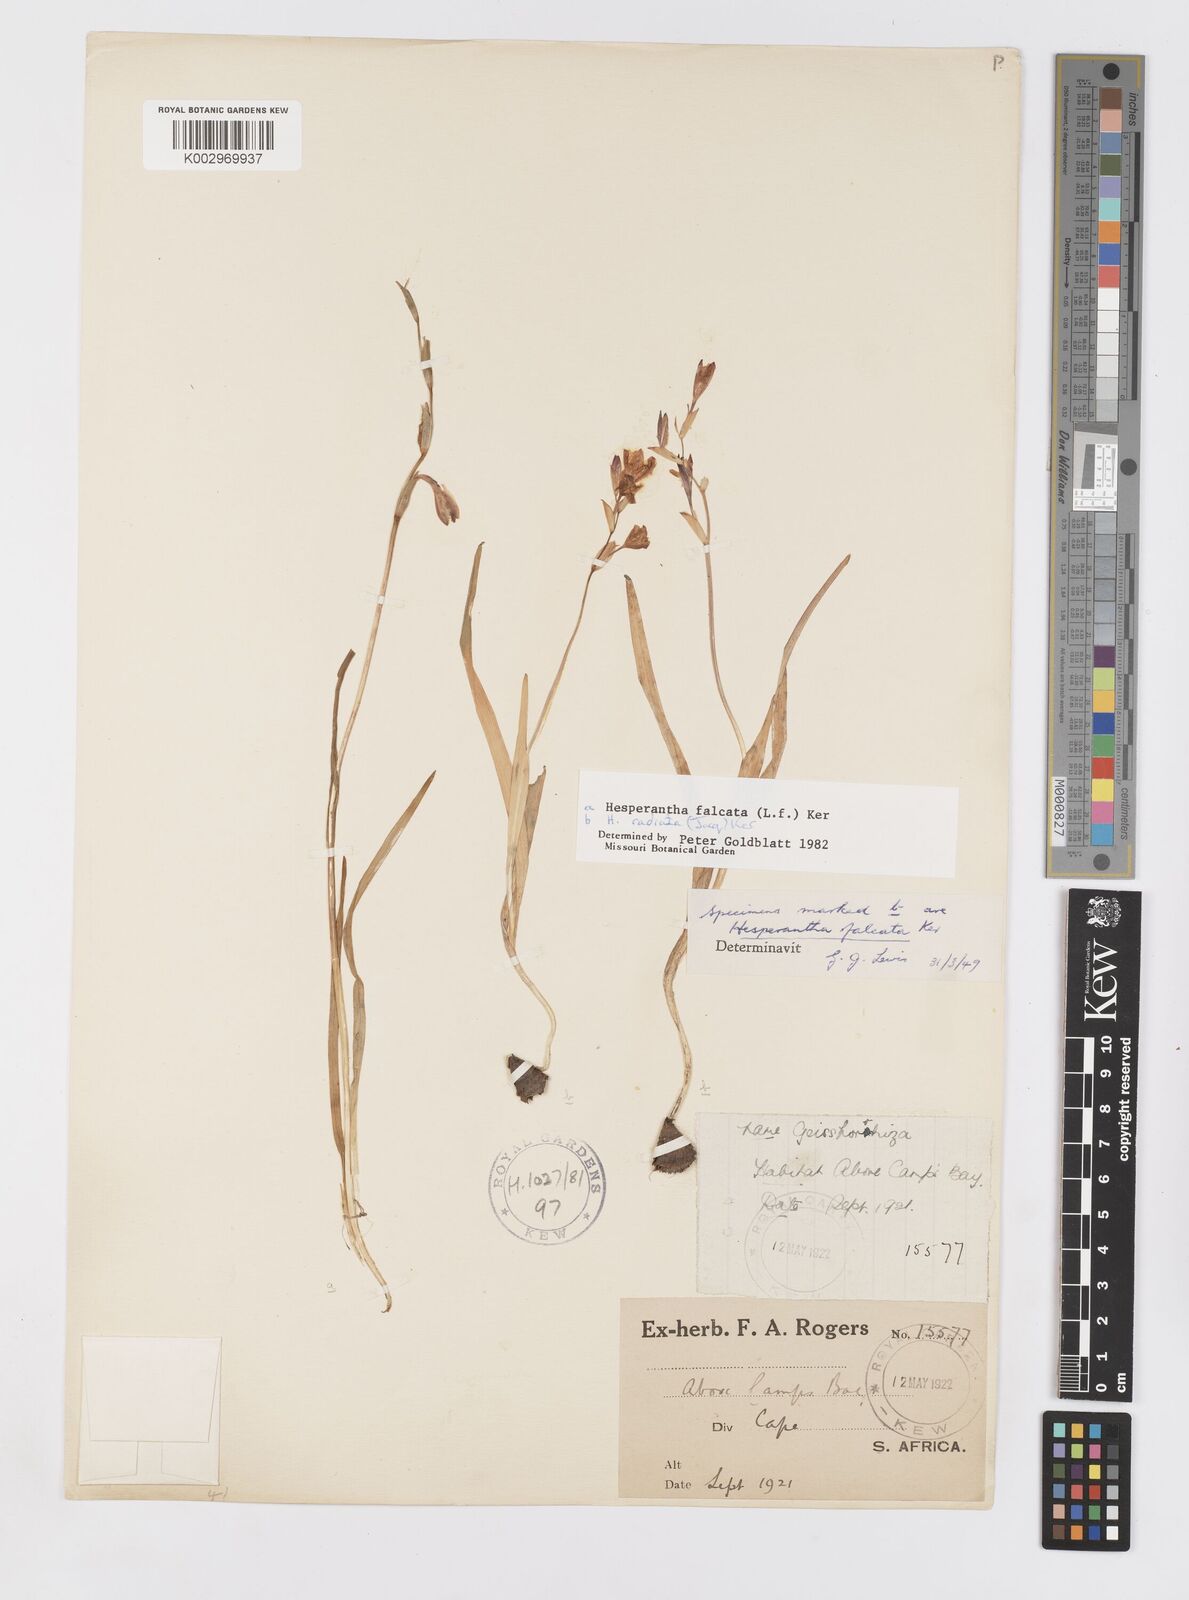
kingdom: Plantae
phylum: Tracheophyta
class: Liliopsida
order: Asparagales
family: Iridaceae
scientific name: Iridaceae
